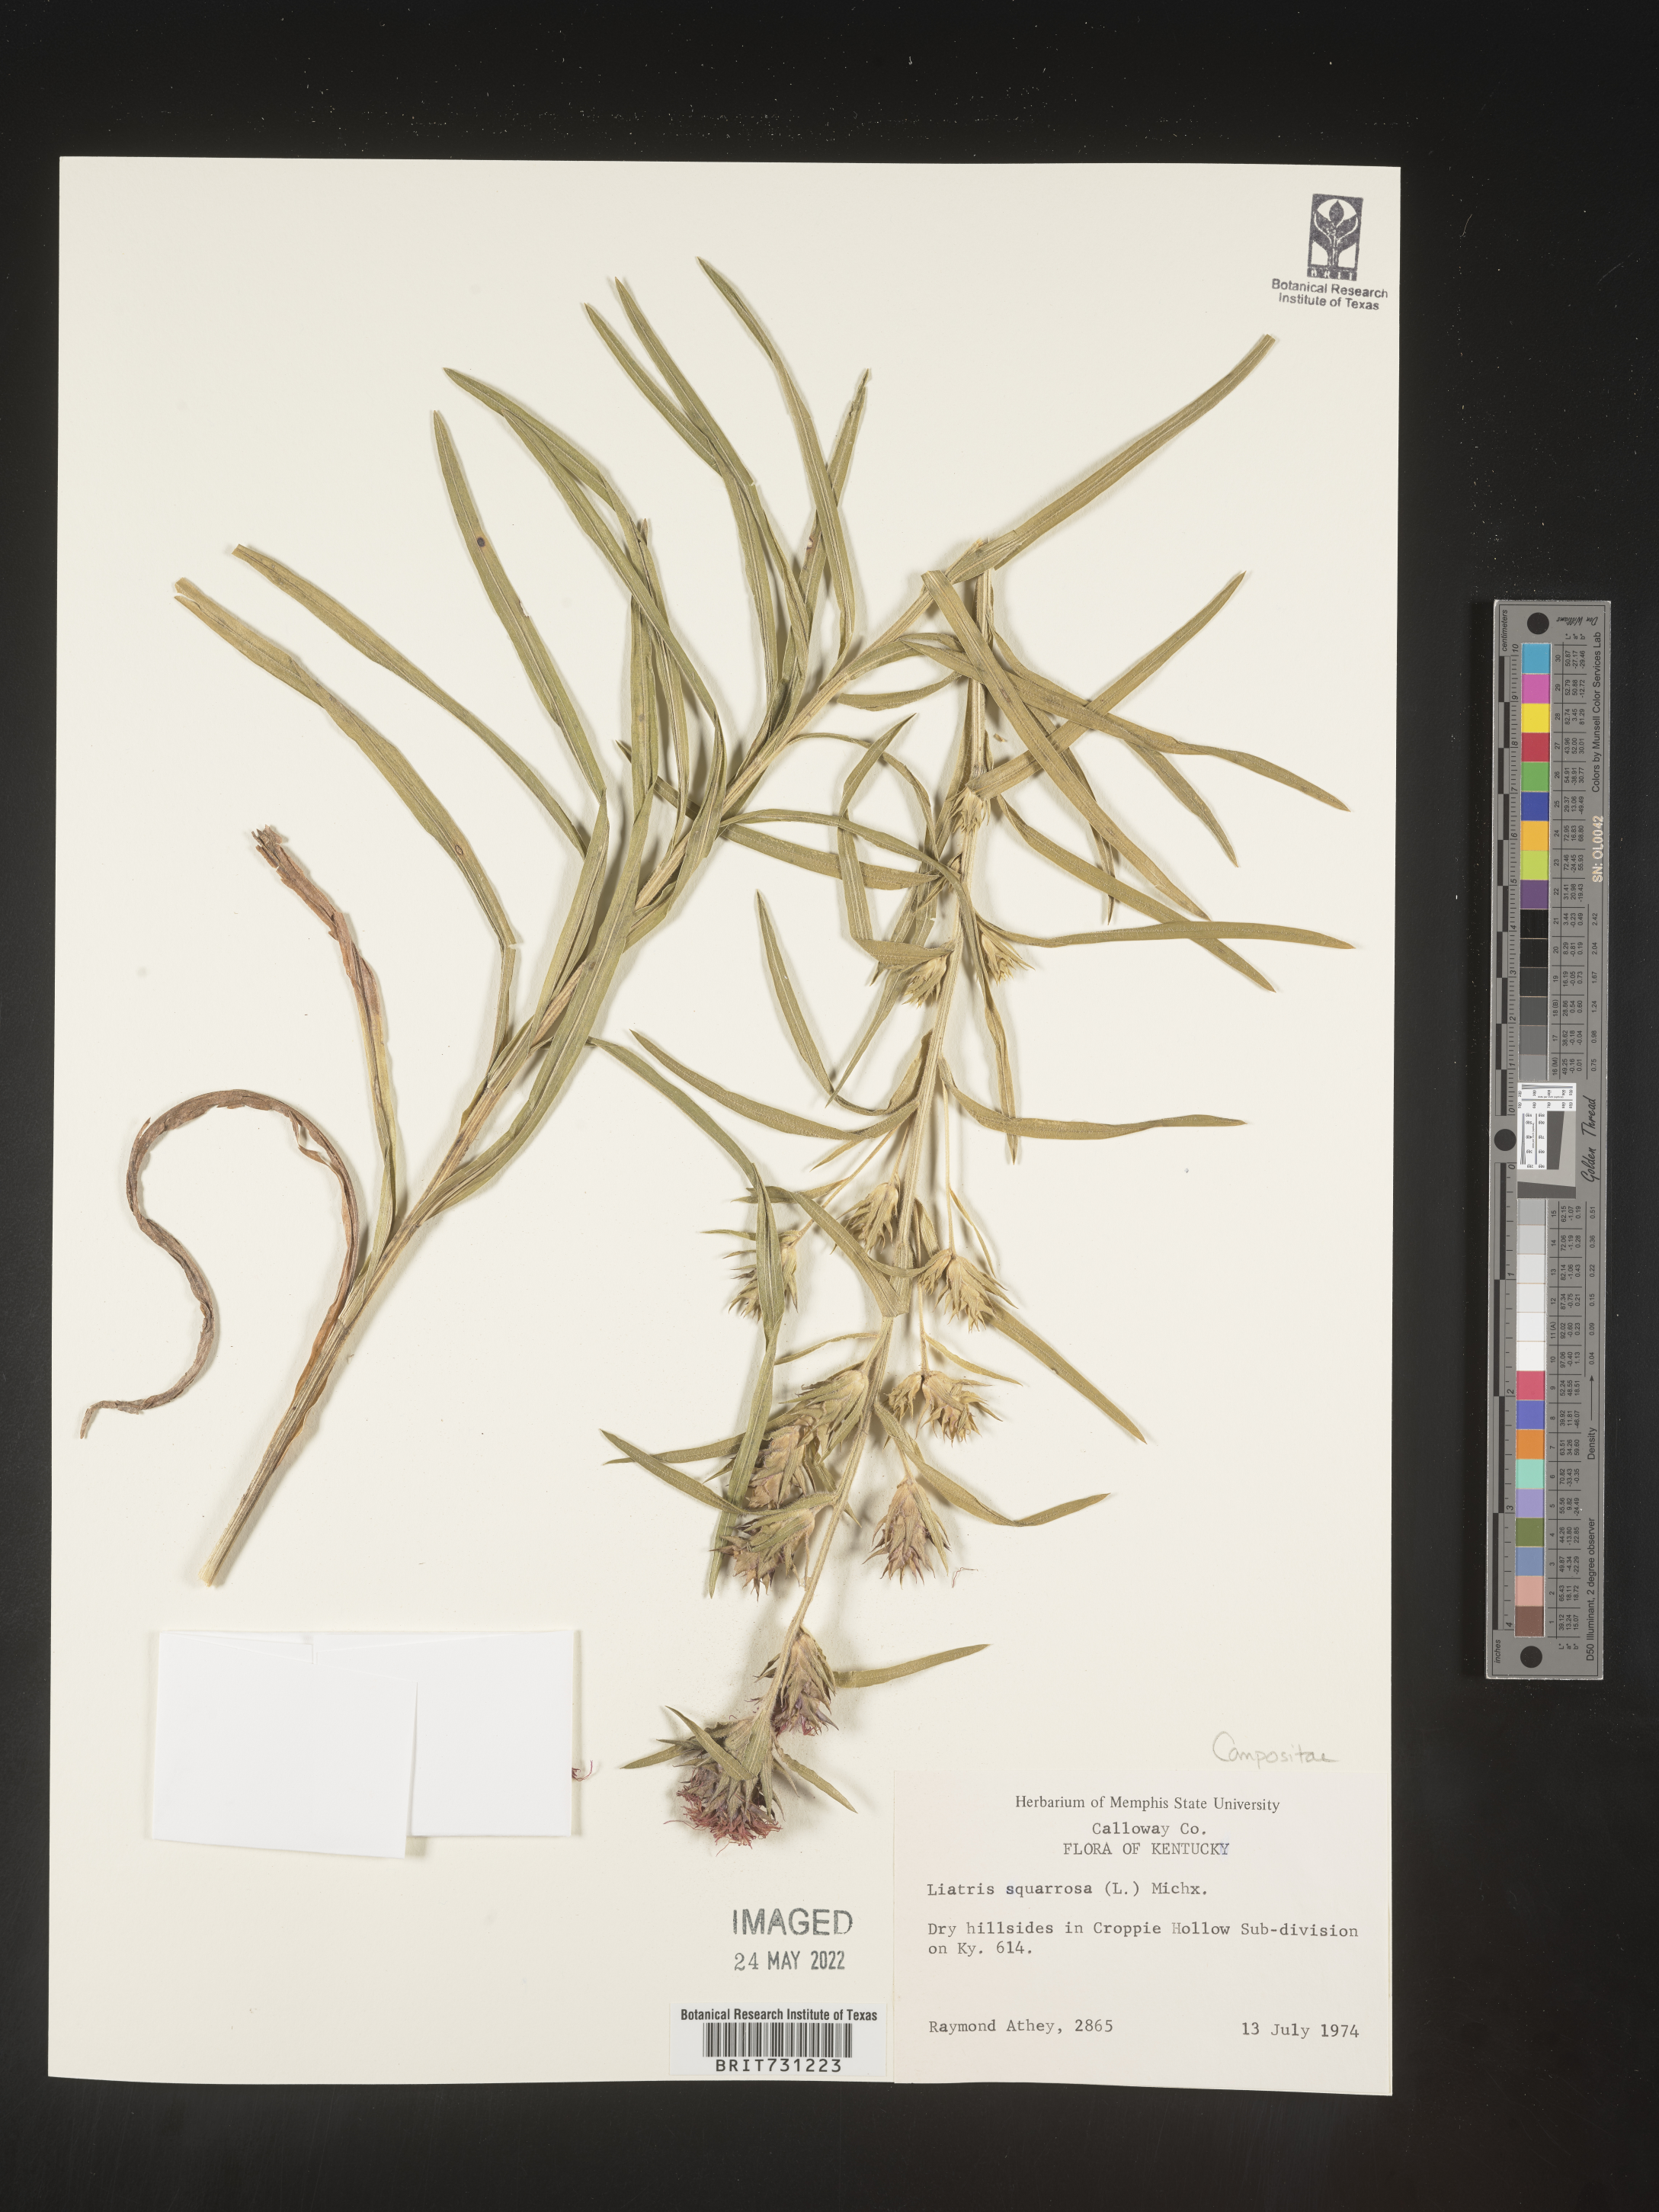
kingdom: Plantae
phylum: Tracheophyta
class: Magnoliopsida
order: Asterales
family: Asteraceae
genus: Liatris
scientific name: Liatris squarrosa
